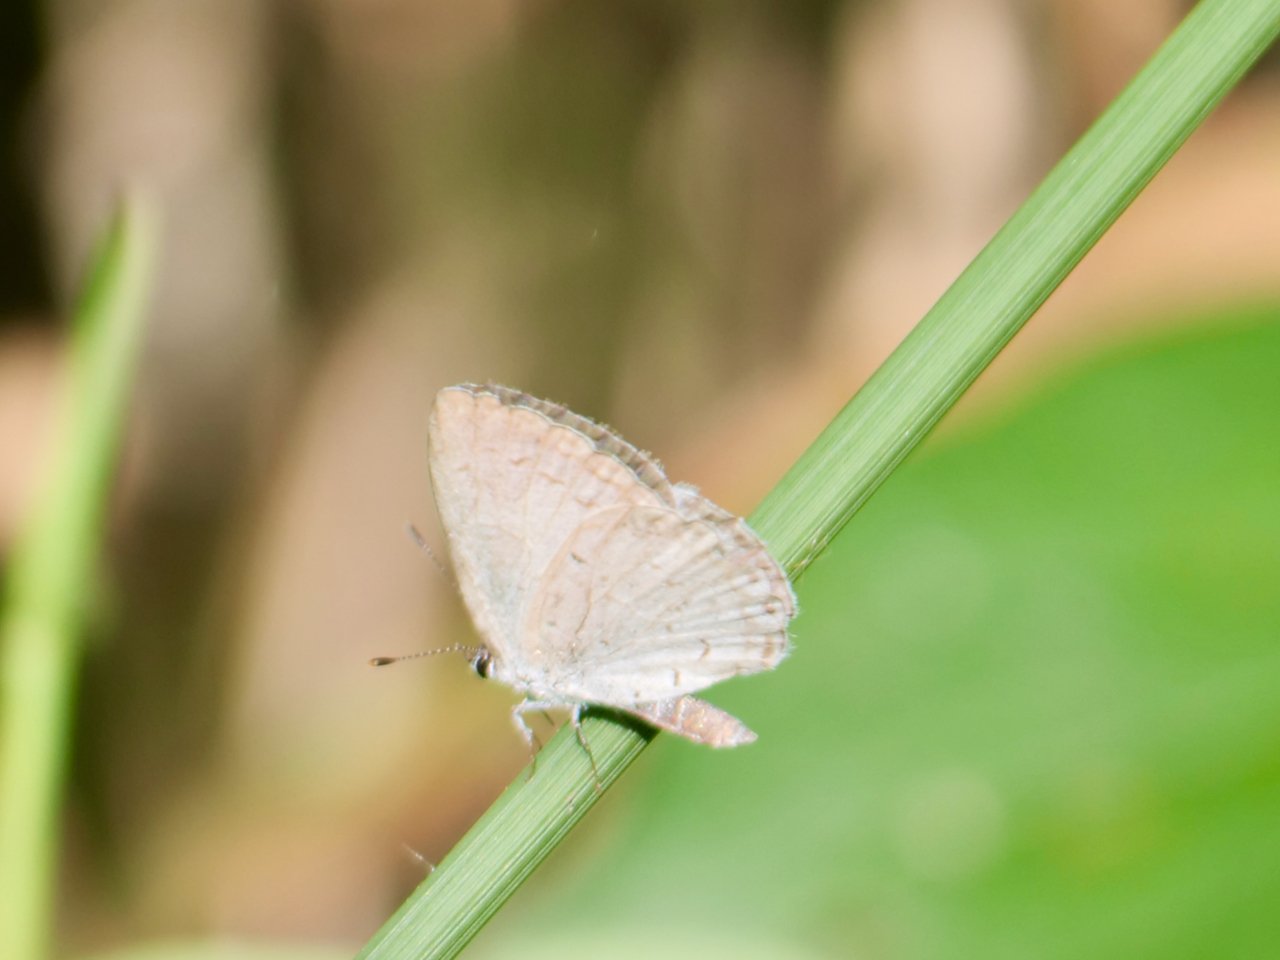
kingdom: Animalia
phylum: Arthropoda
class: Insecta
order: Lepidoptera
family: Lycaenidae
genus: Cyaniris
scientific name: Cyaniris neglecta
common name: Summer Azure
